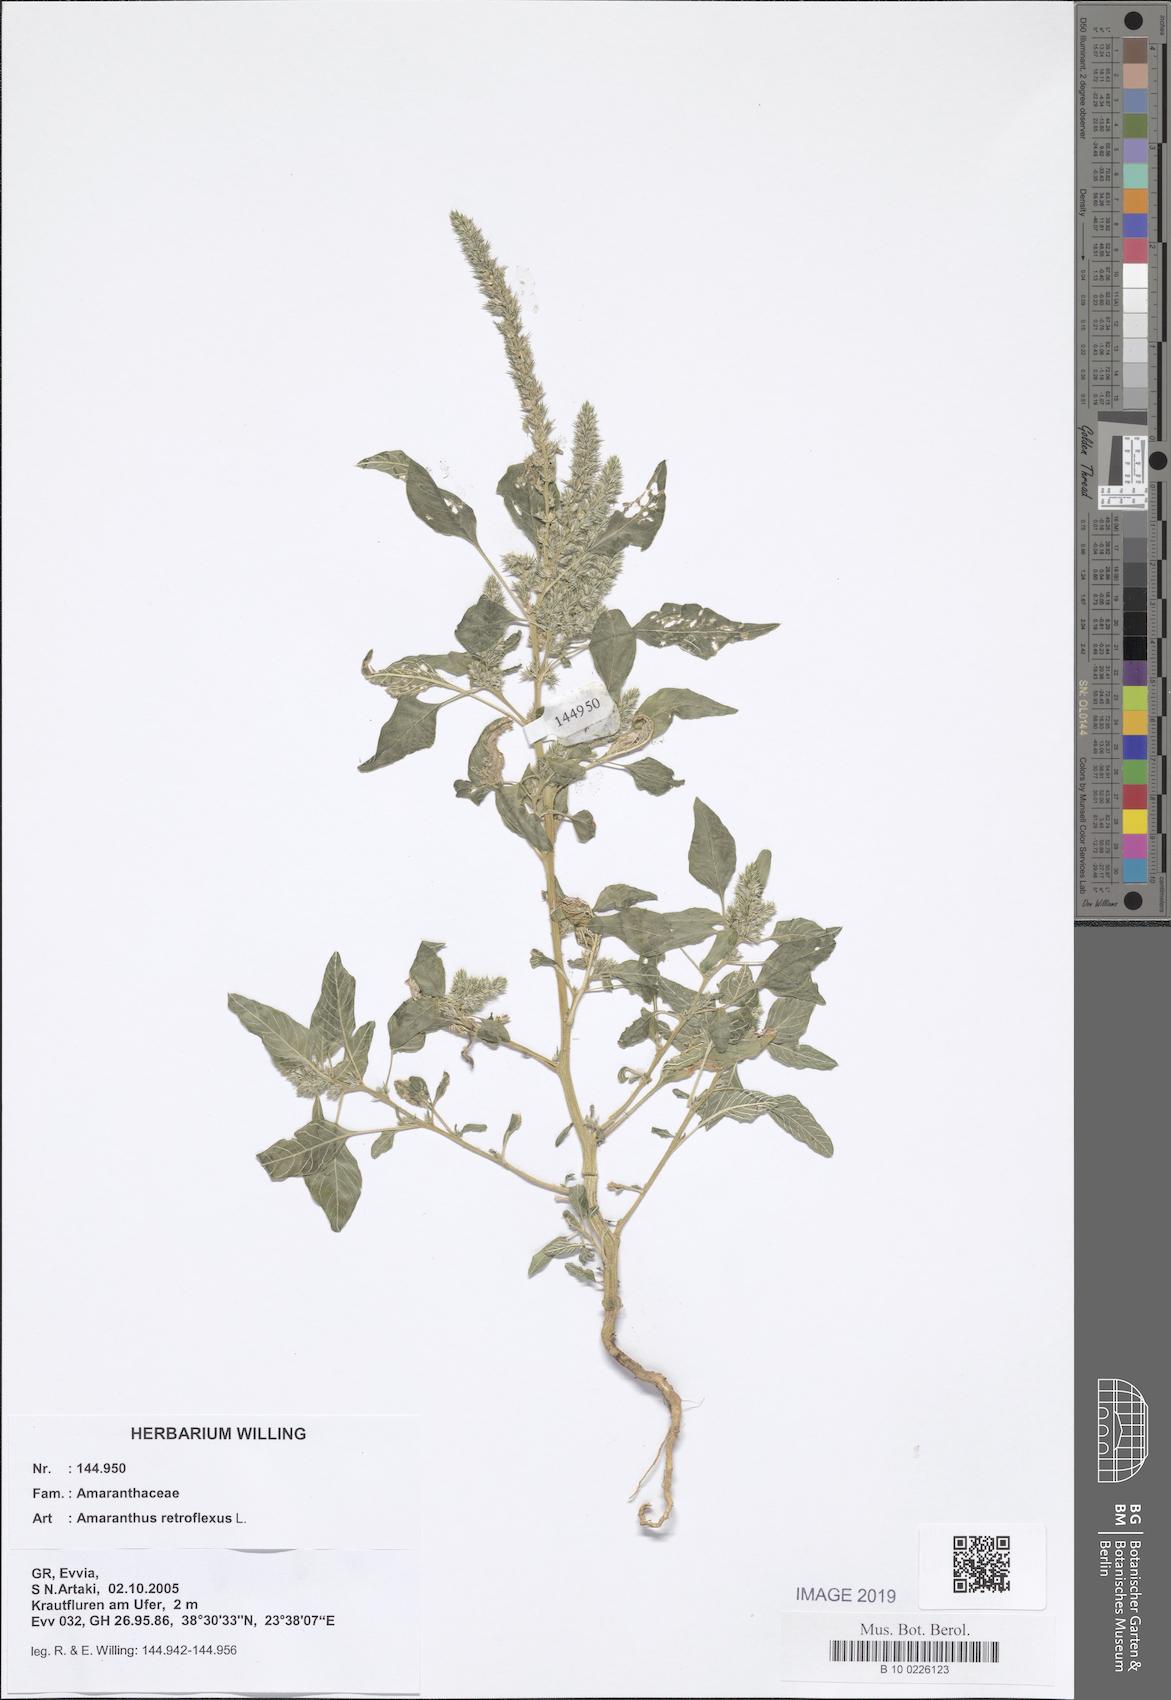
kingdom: Plantae
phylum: Tracheophyta
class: Magnoliopsida
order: Caryophyllales
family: Amaranthaceae
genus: Amaranthus
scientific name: Amaranthus retroflexus
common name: Redroot amaranth
